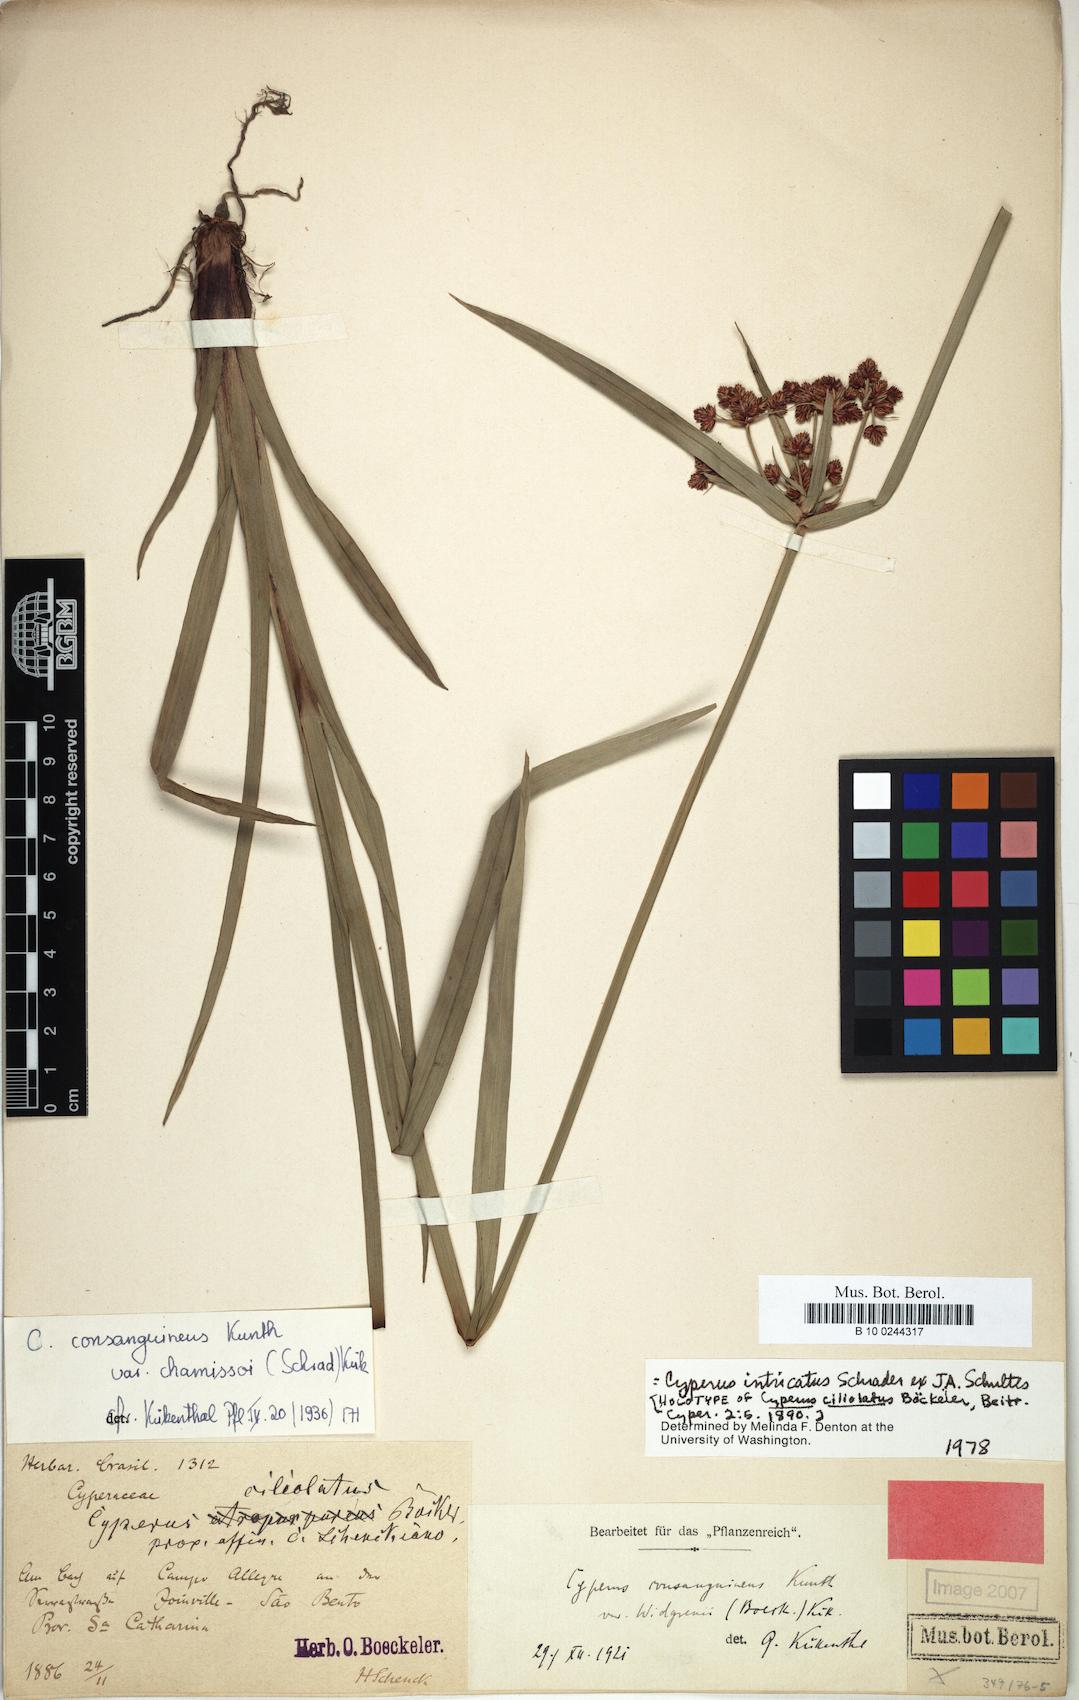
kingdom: Plantae
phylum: Tracheophyta
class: Liliopsida
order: Poales
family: Cyperaceae
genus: Cyperus
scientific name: Cyperus intricatus
